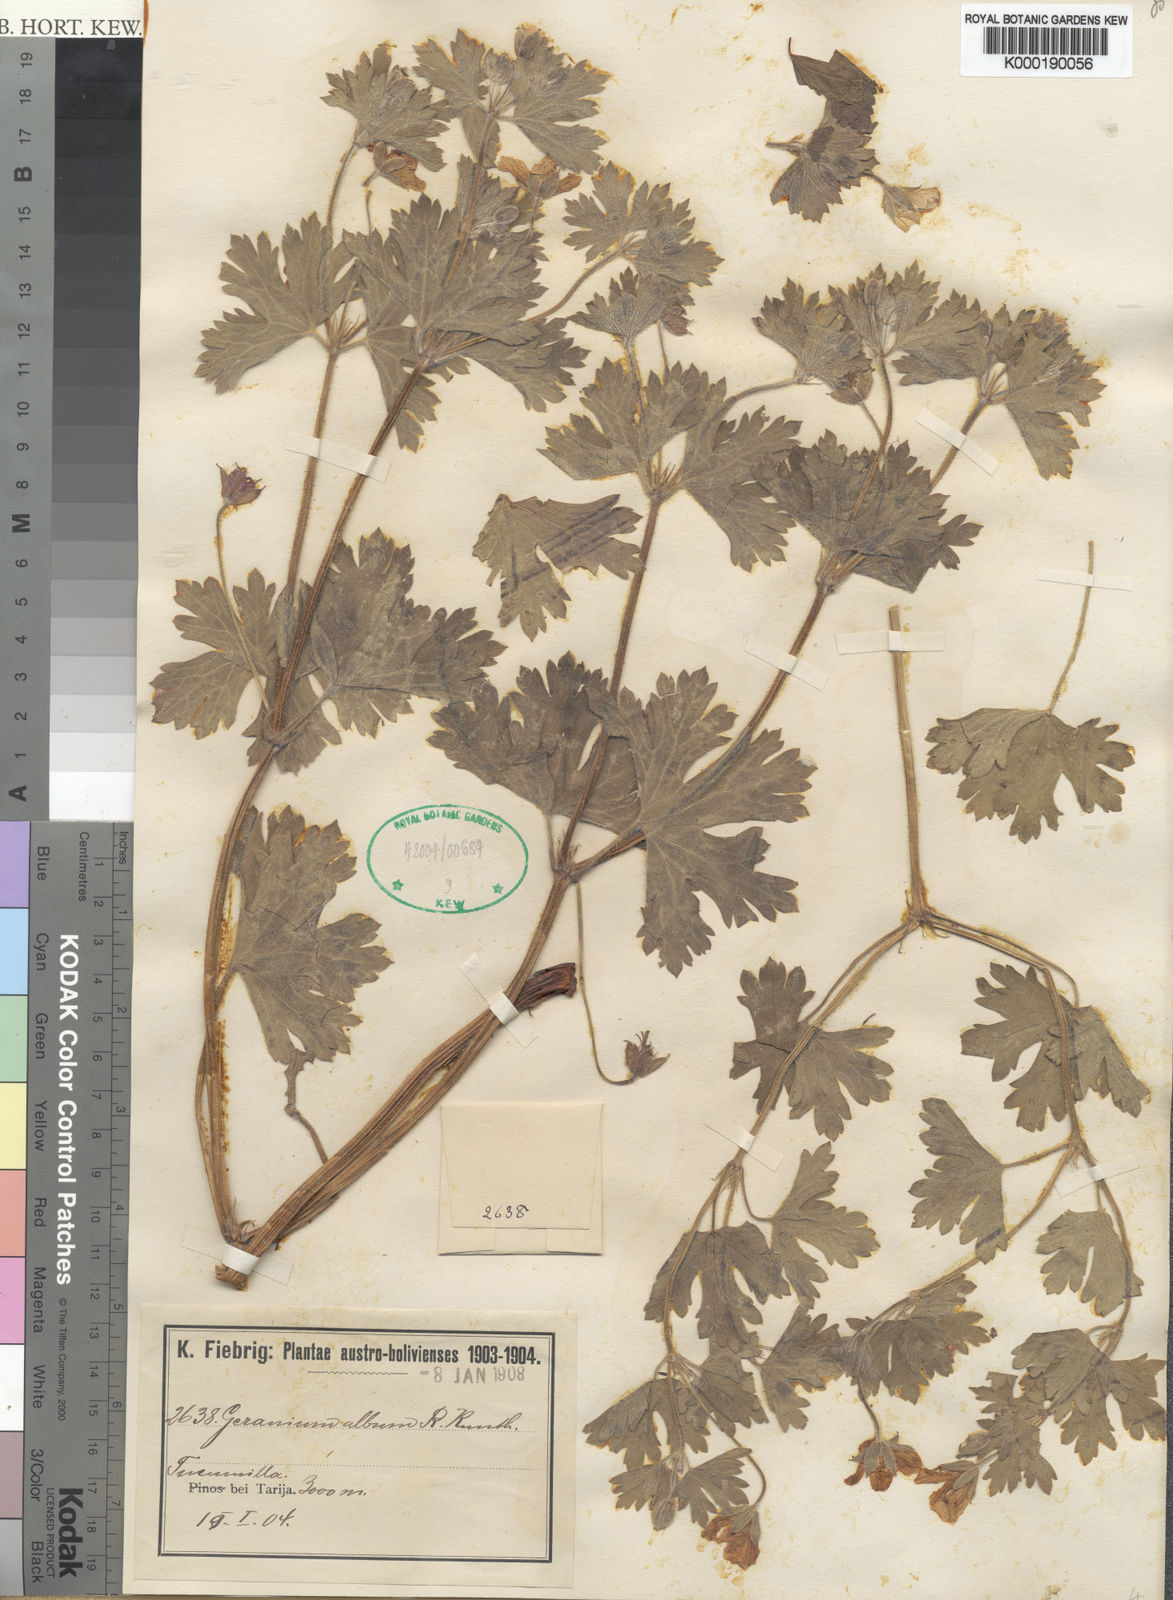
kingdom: Plantae
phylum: Tracheophyta
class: Magnoliopsida
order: Geraniales
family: Geraniaceae
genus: Geranium
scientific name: Geranium rupicola
